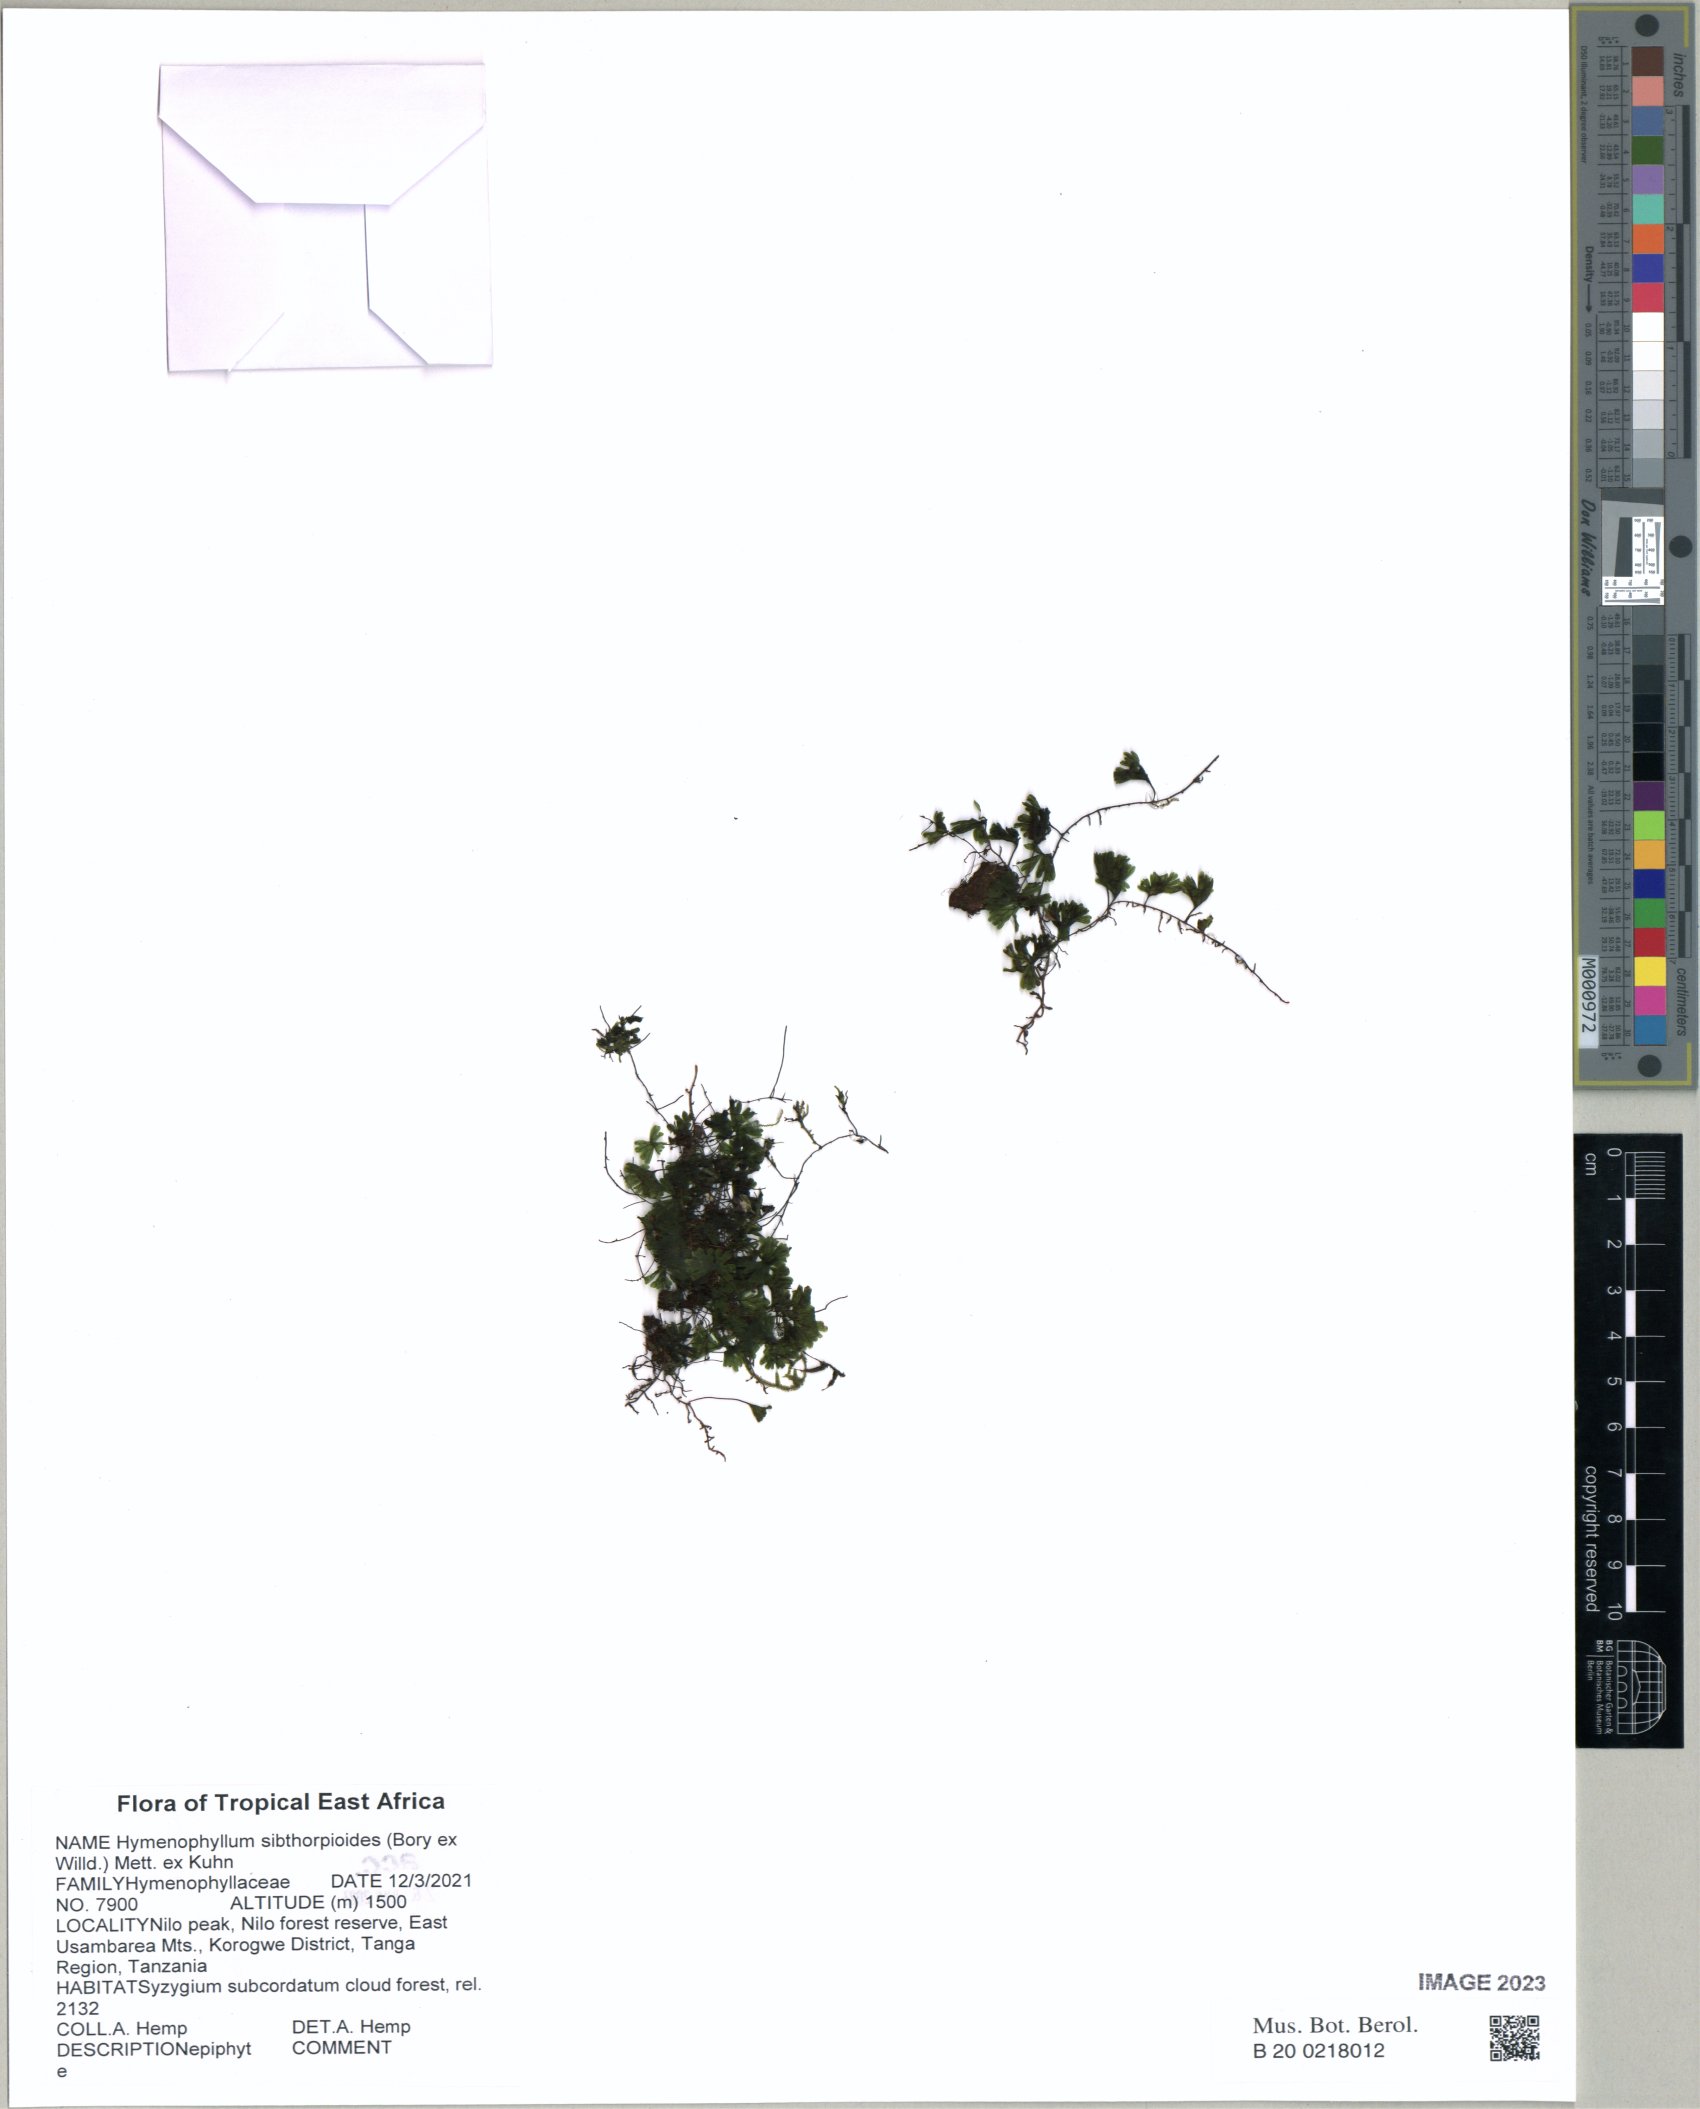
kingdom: Plantae
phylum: Tracheophyta
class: Polypodiopsida
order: Hymenophyllales
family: Hymenophyllaceae
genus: Hymenophyllum
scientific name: Hymenophyllum sibthorpioides
